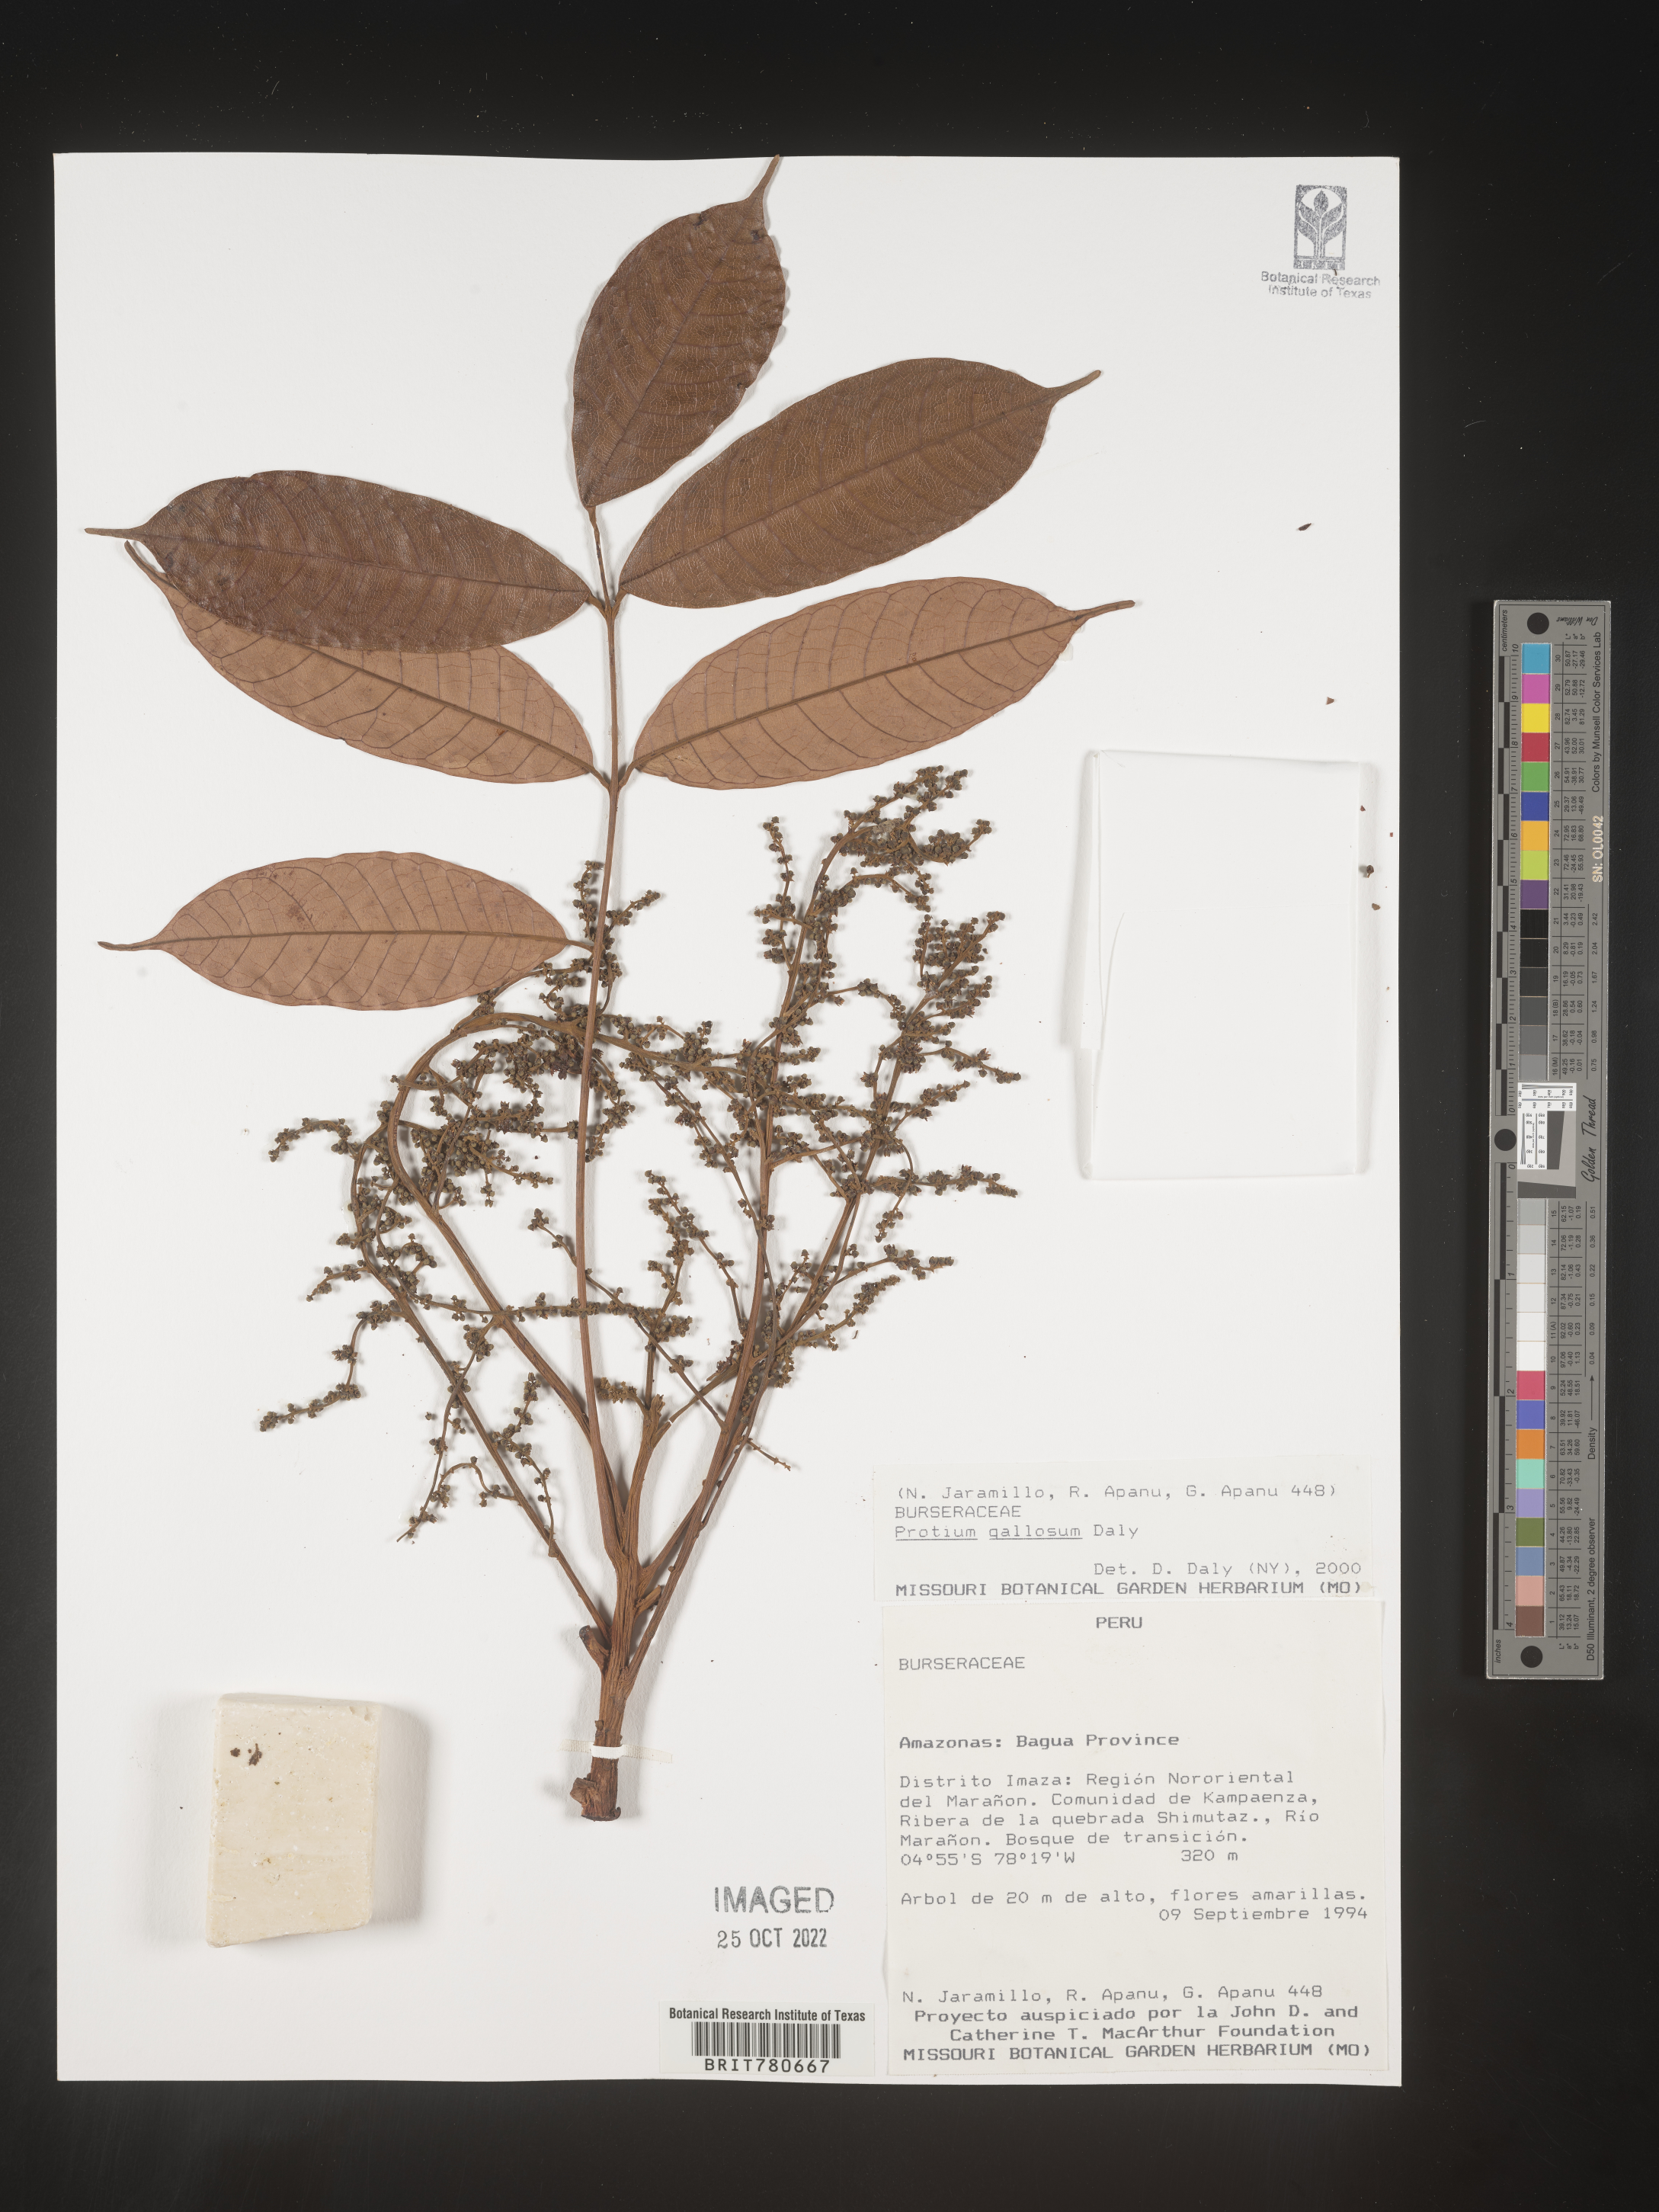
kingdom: Plantae
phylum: Tracheophyta
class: Magnoliopsida
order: Sapindales
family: Burseraceae
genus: Protium
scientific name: Protium
